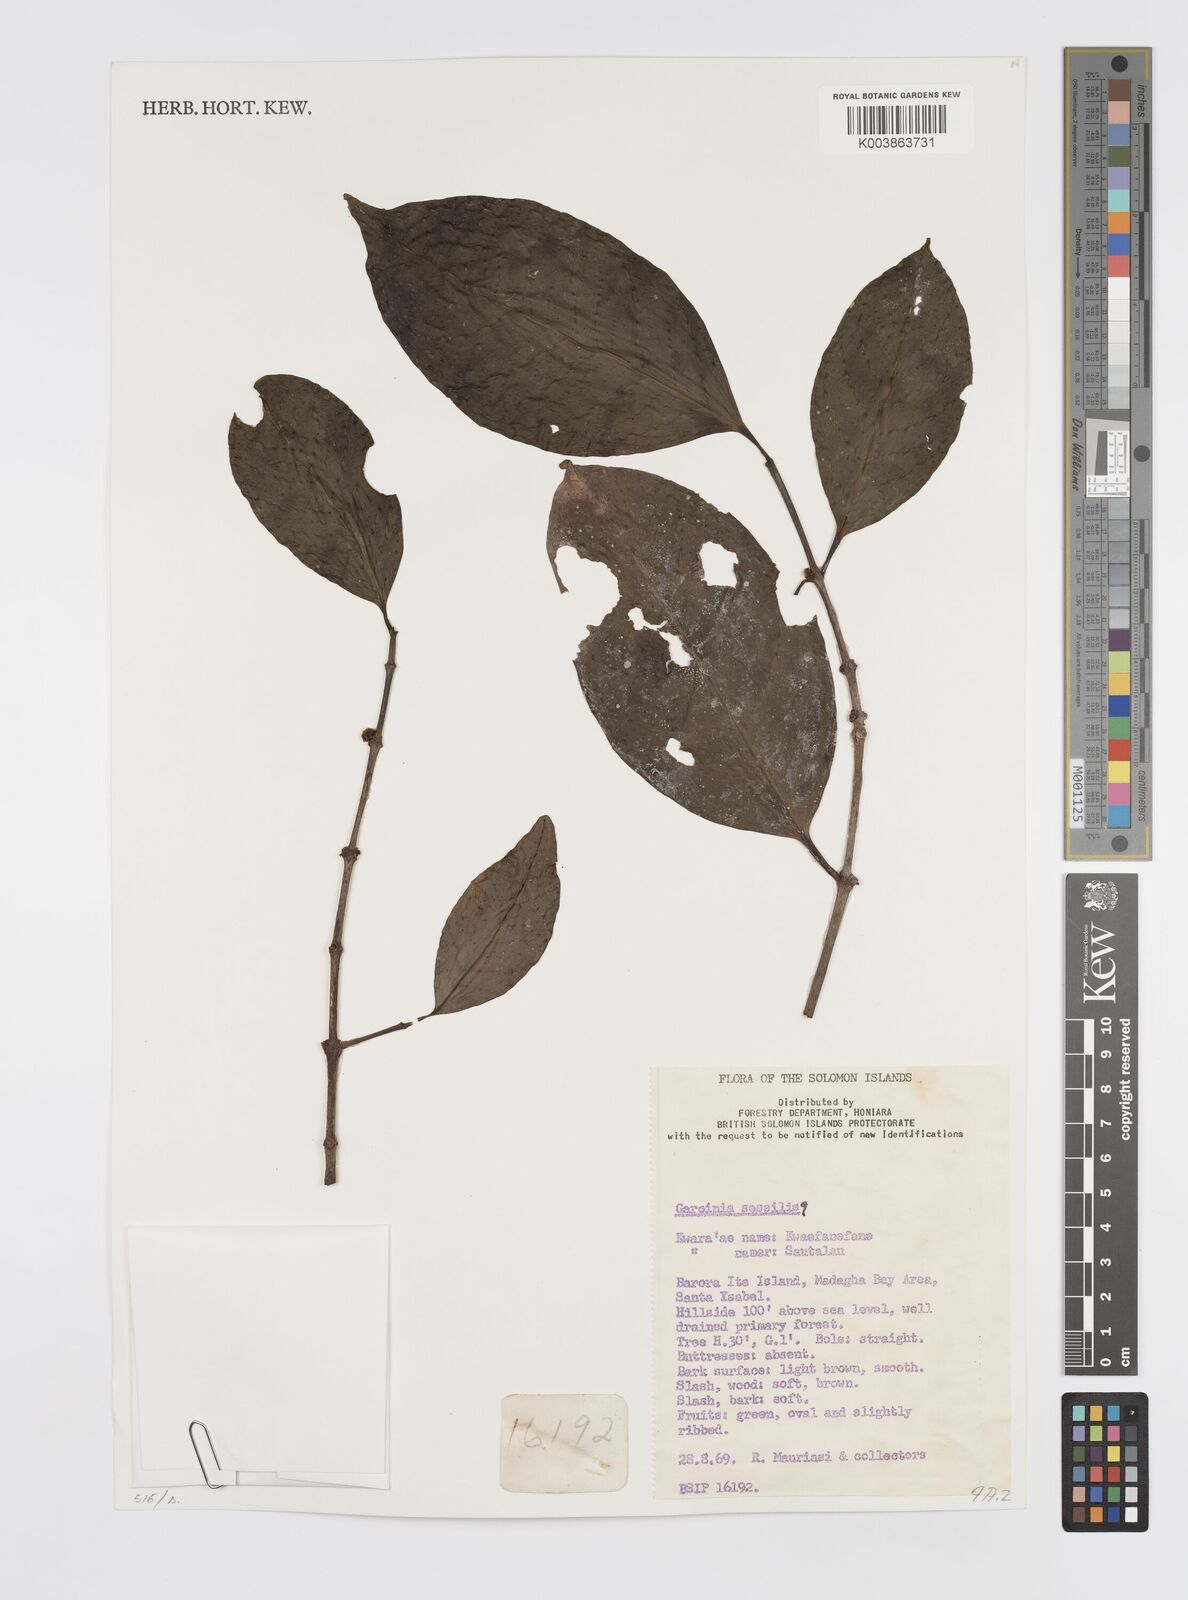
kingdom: Plantae
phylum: Tracheophyta
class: Magnoliopsida
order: Malpighiales
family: Clusiaceae
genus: Garcinia
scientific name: Garcinia sessilis
